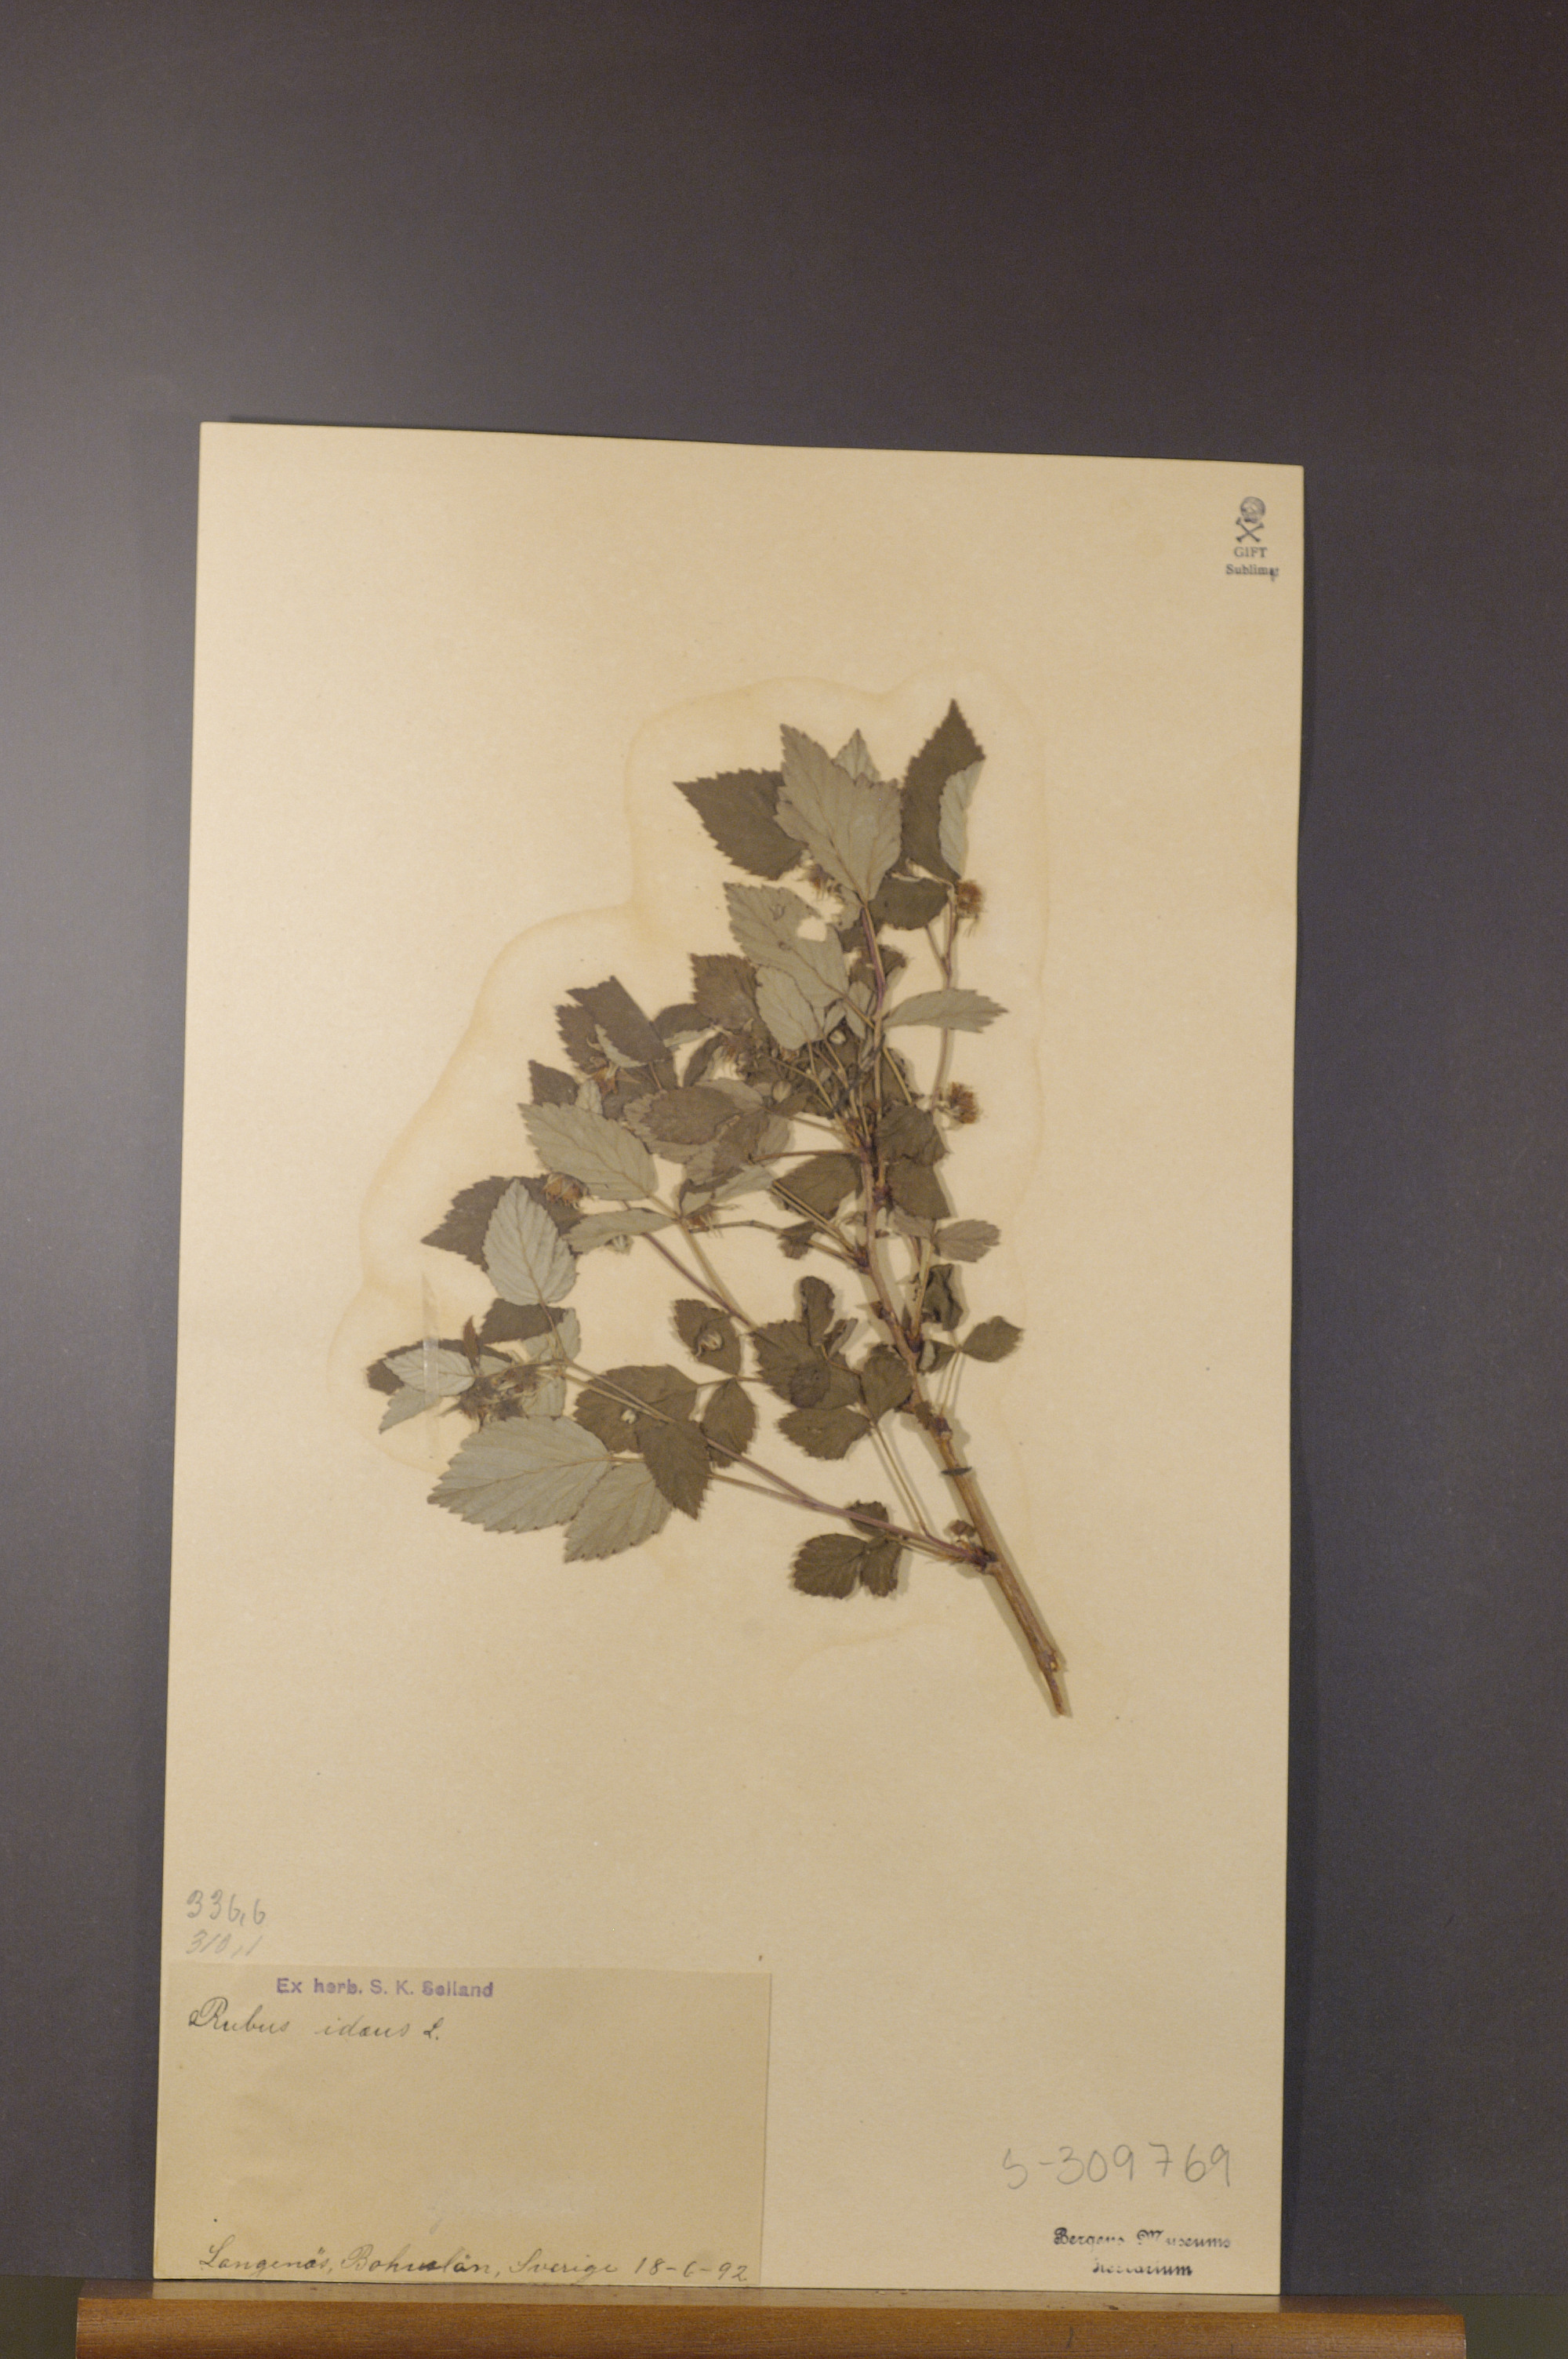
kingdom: Plantae
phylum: Tracheophyta
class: Magnoliopsida
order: Rosales
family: Rosaceae
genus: Rubus
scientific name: Rubus idaeus
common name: Raspberry
